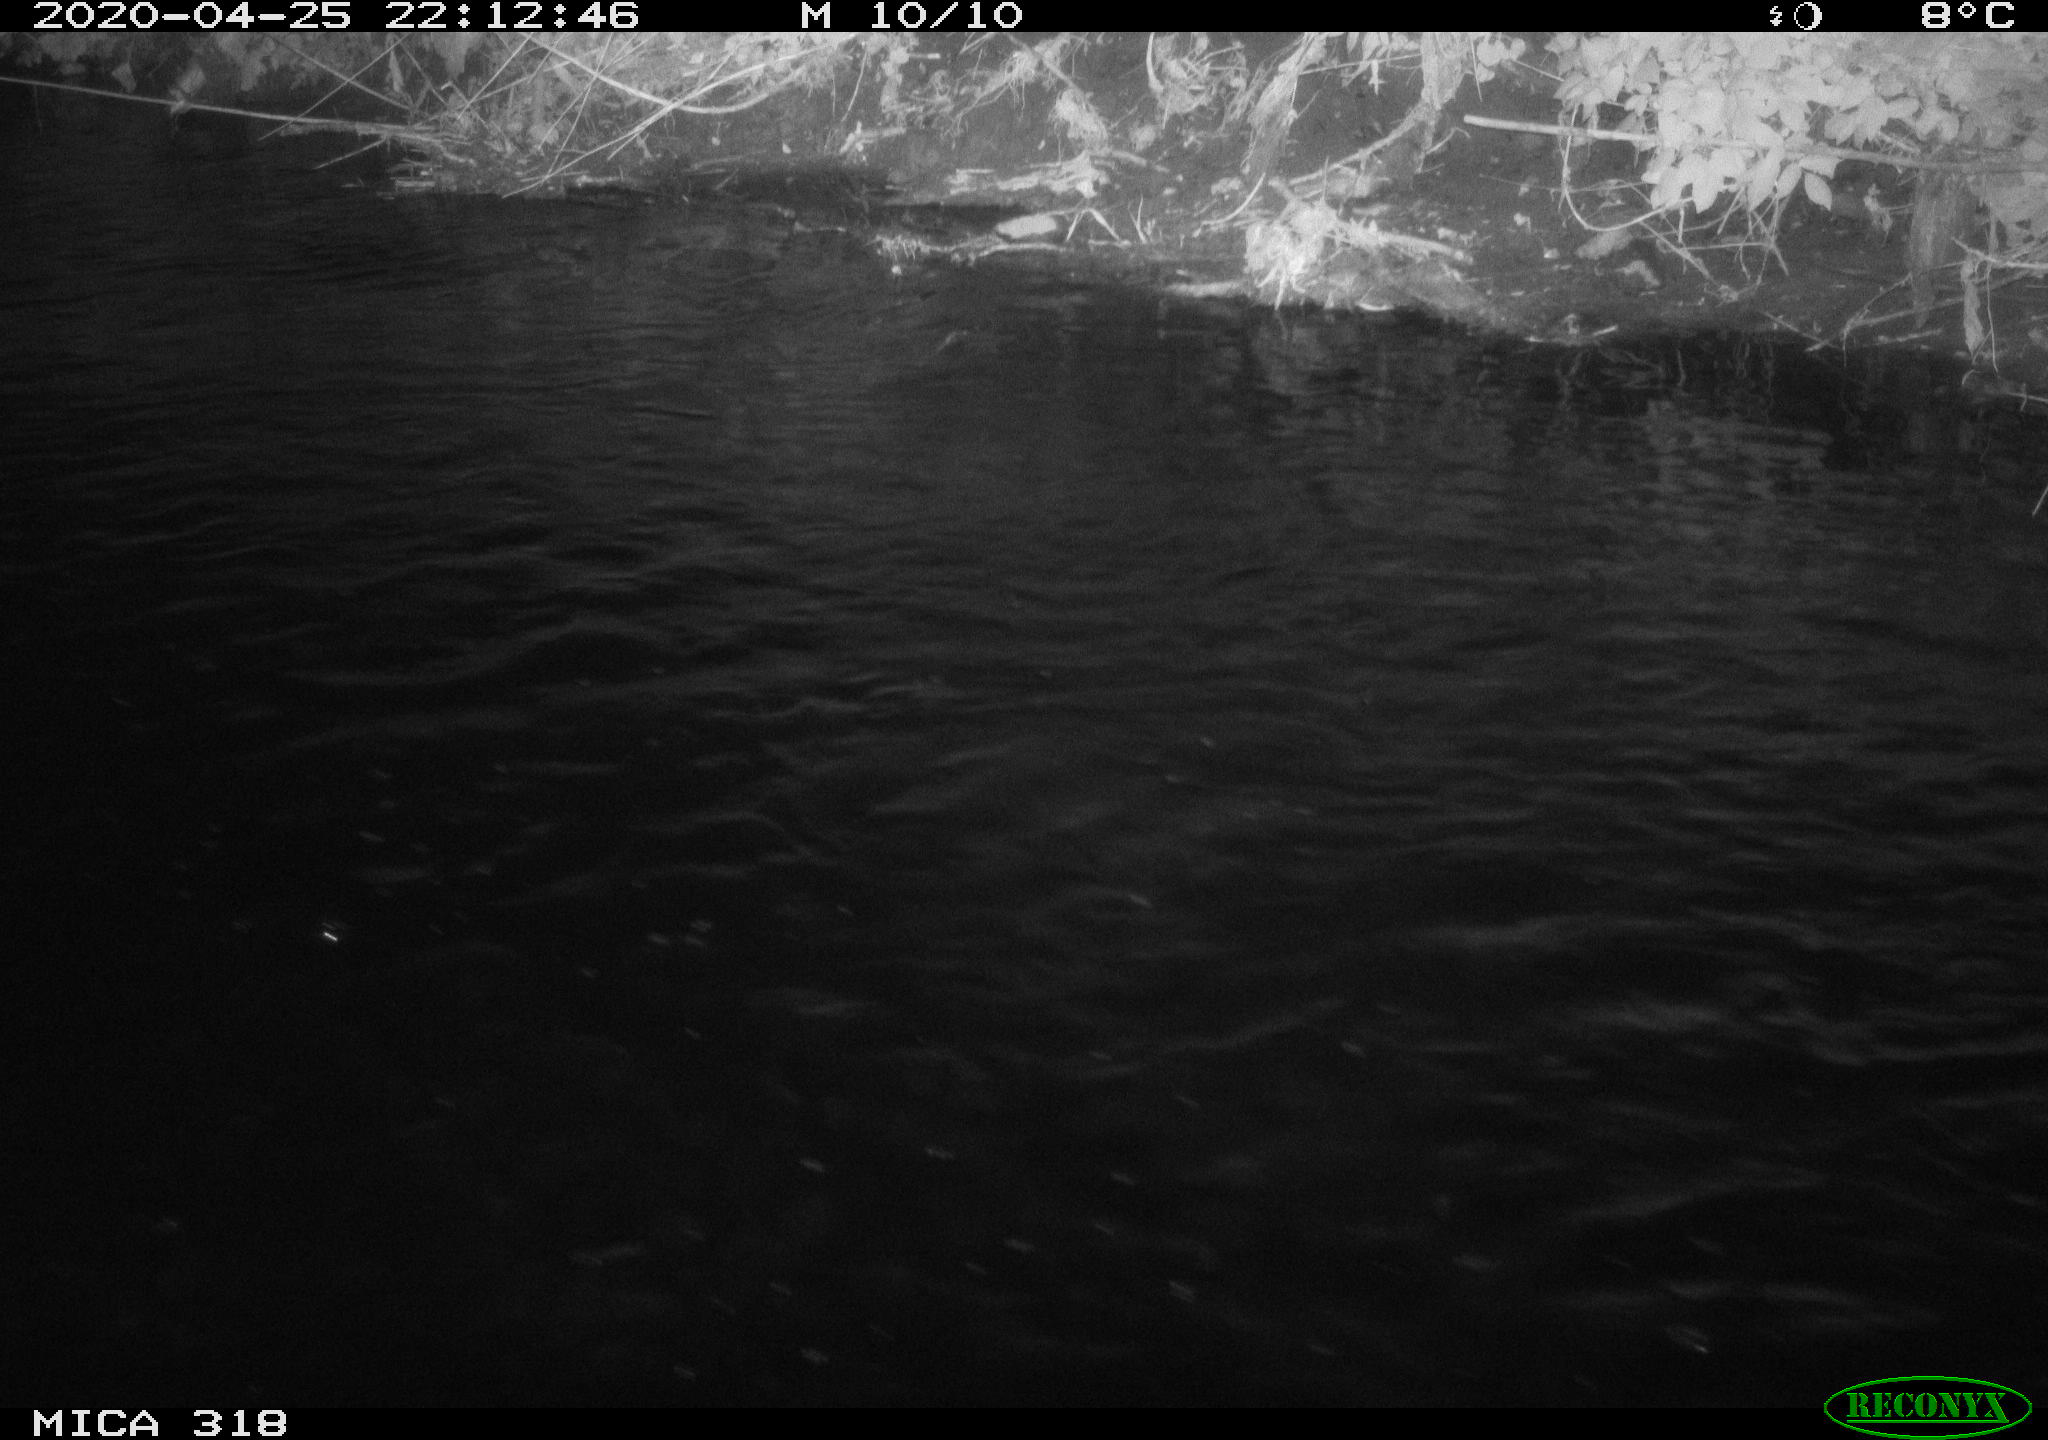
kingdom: Animalia
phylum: Chordata
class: Aves
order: Pelecaniformes
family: Ardeidae
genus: Ardea
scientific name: Ardea cinerea
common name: Grey heron
